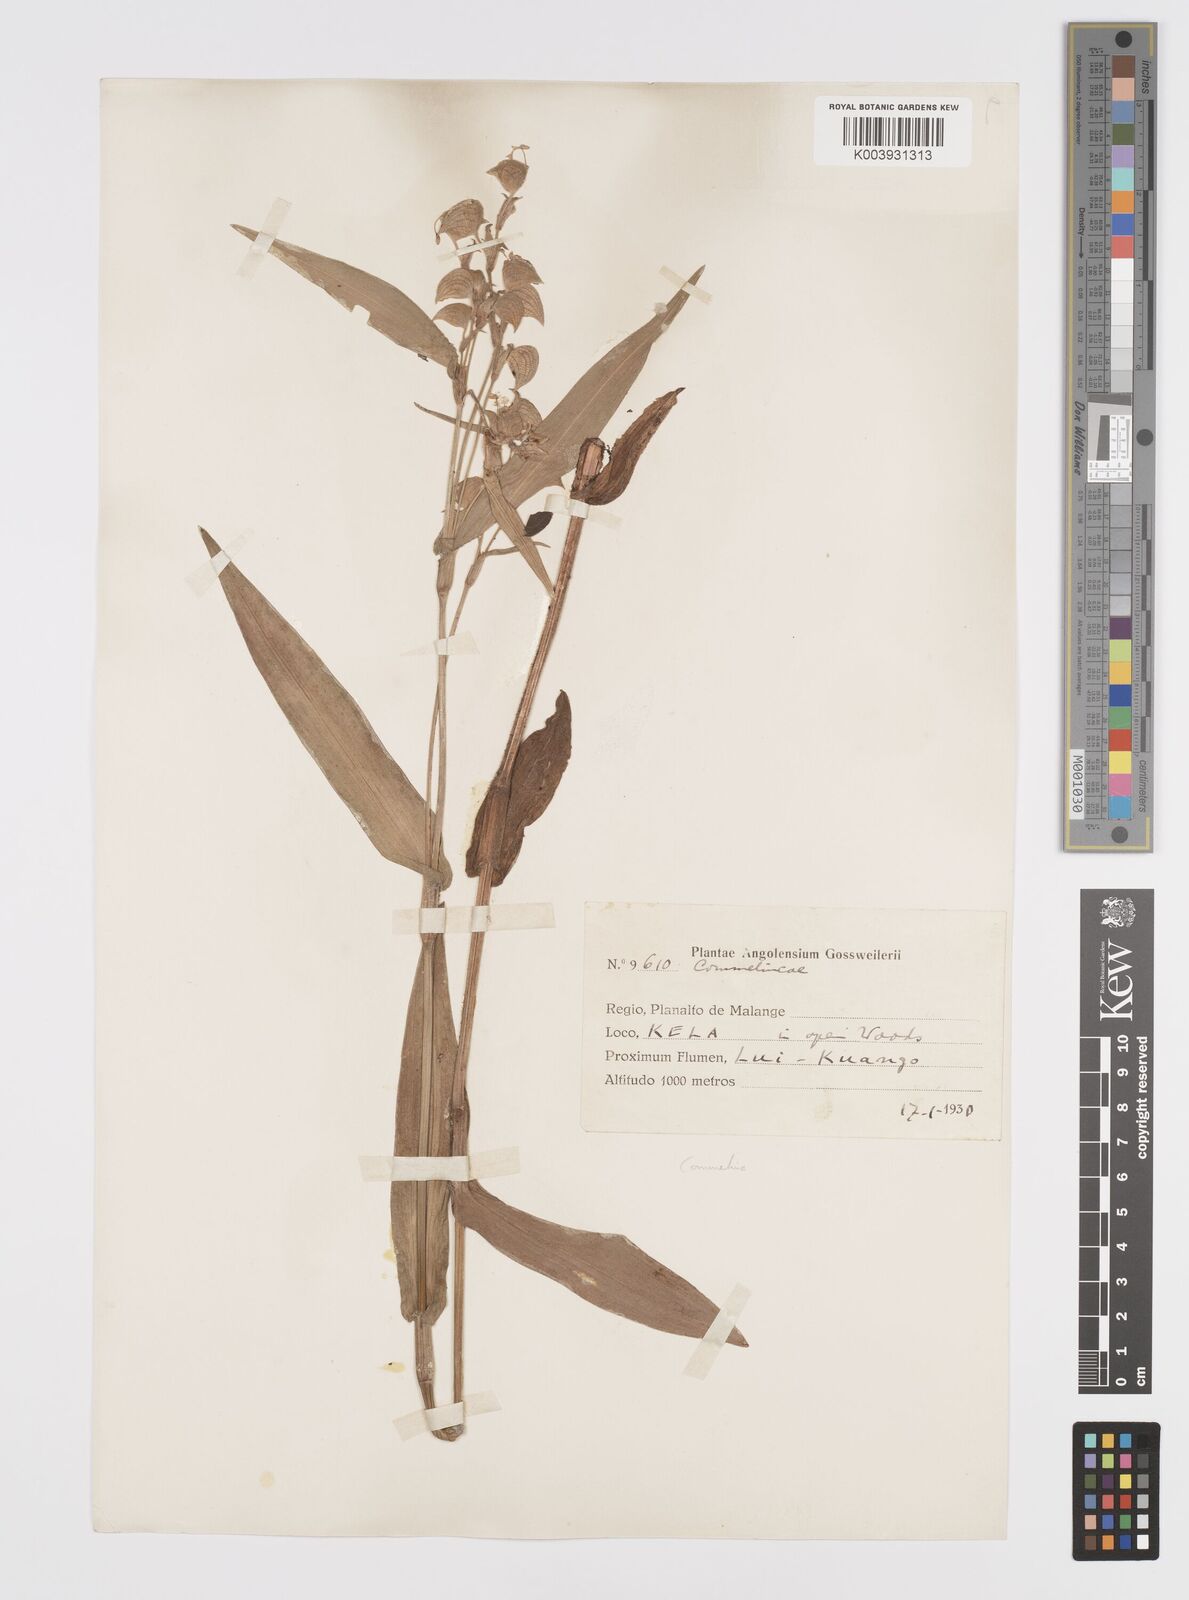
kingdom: Plantae
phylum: Tracheophyta
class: Liliopsida
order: Commelinales
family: Commelinaceae
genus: Commelina
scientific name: Commelina velutina
